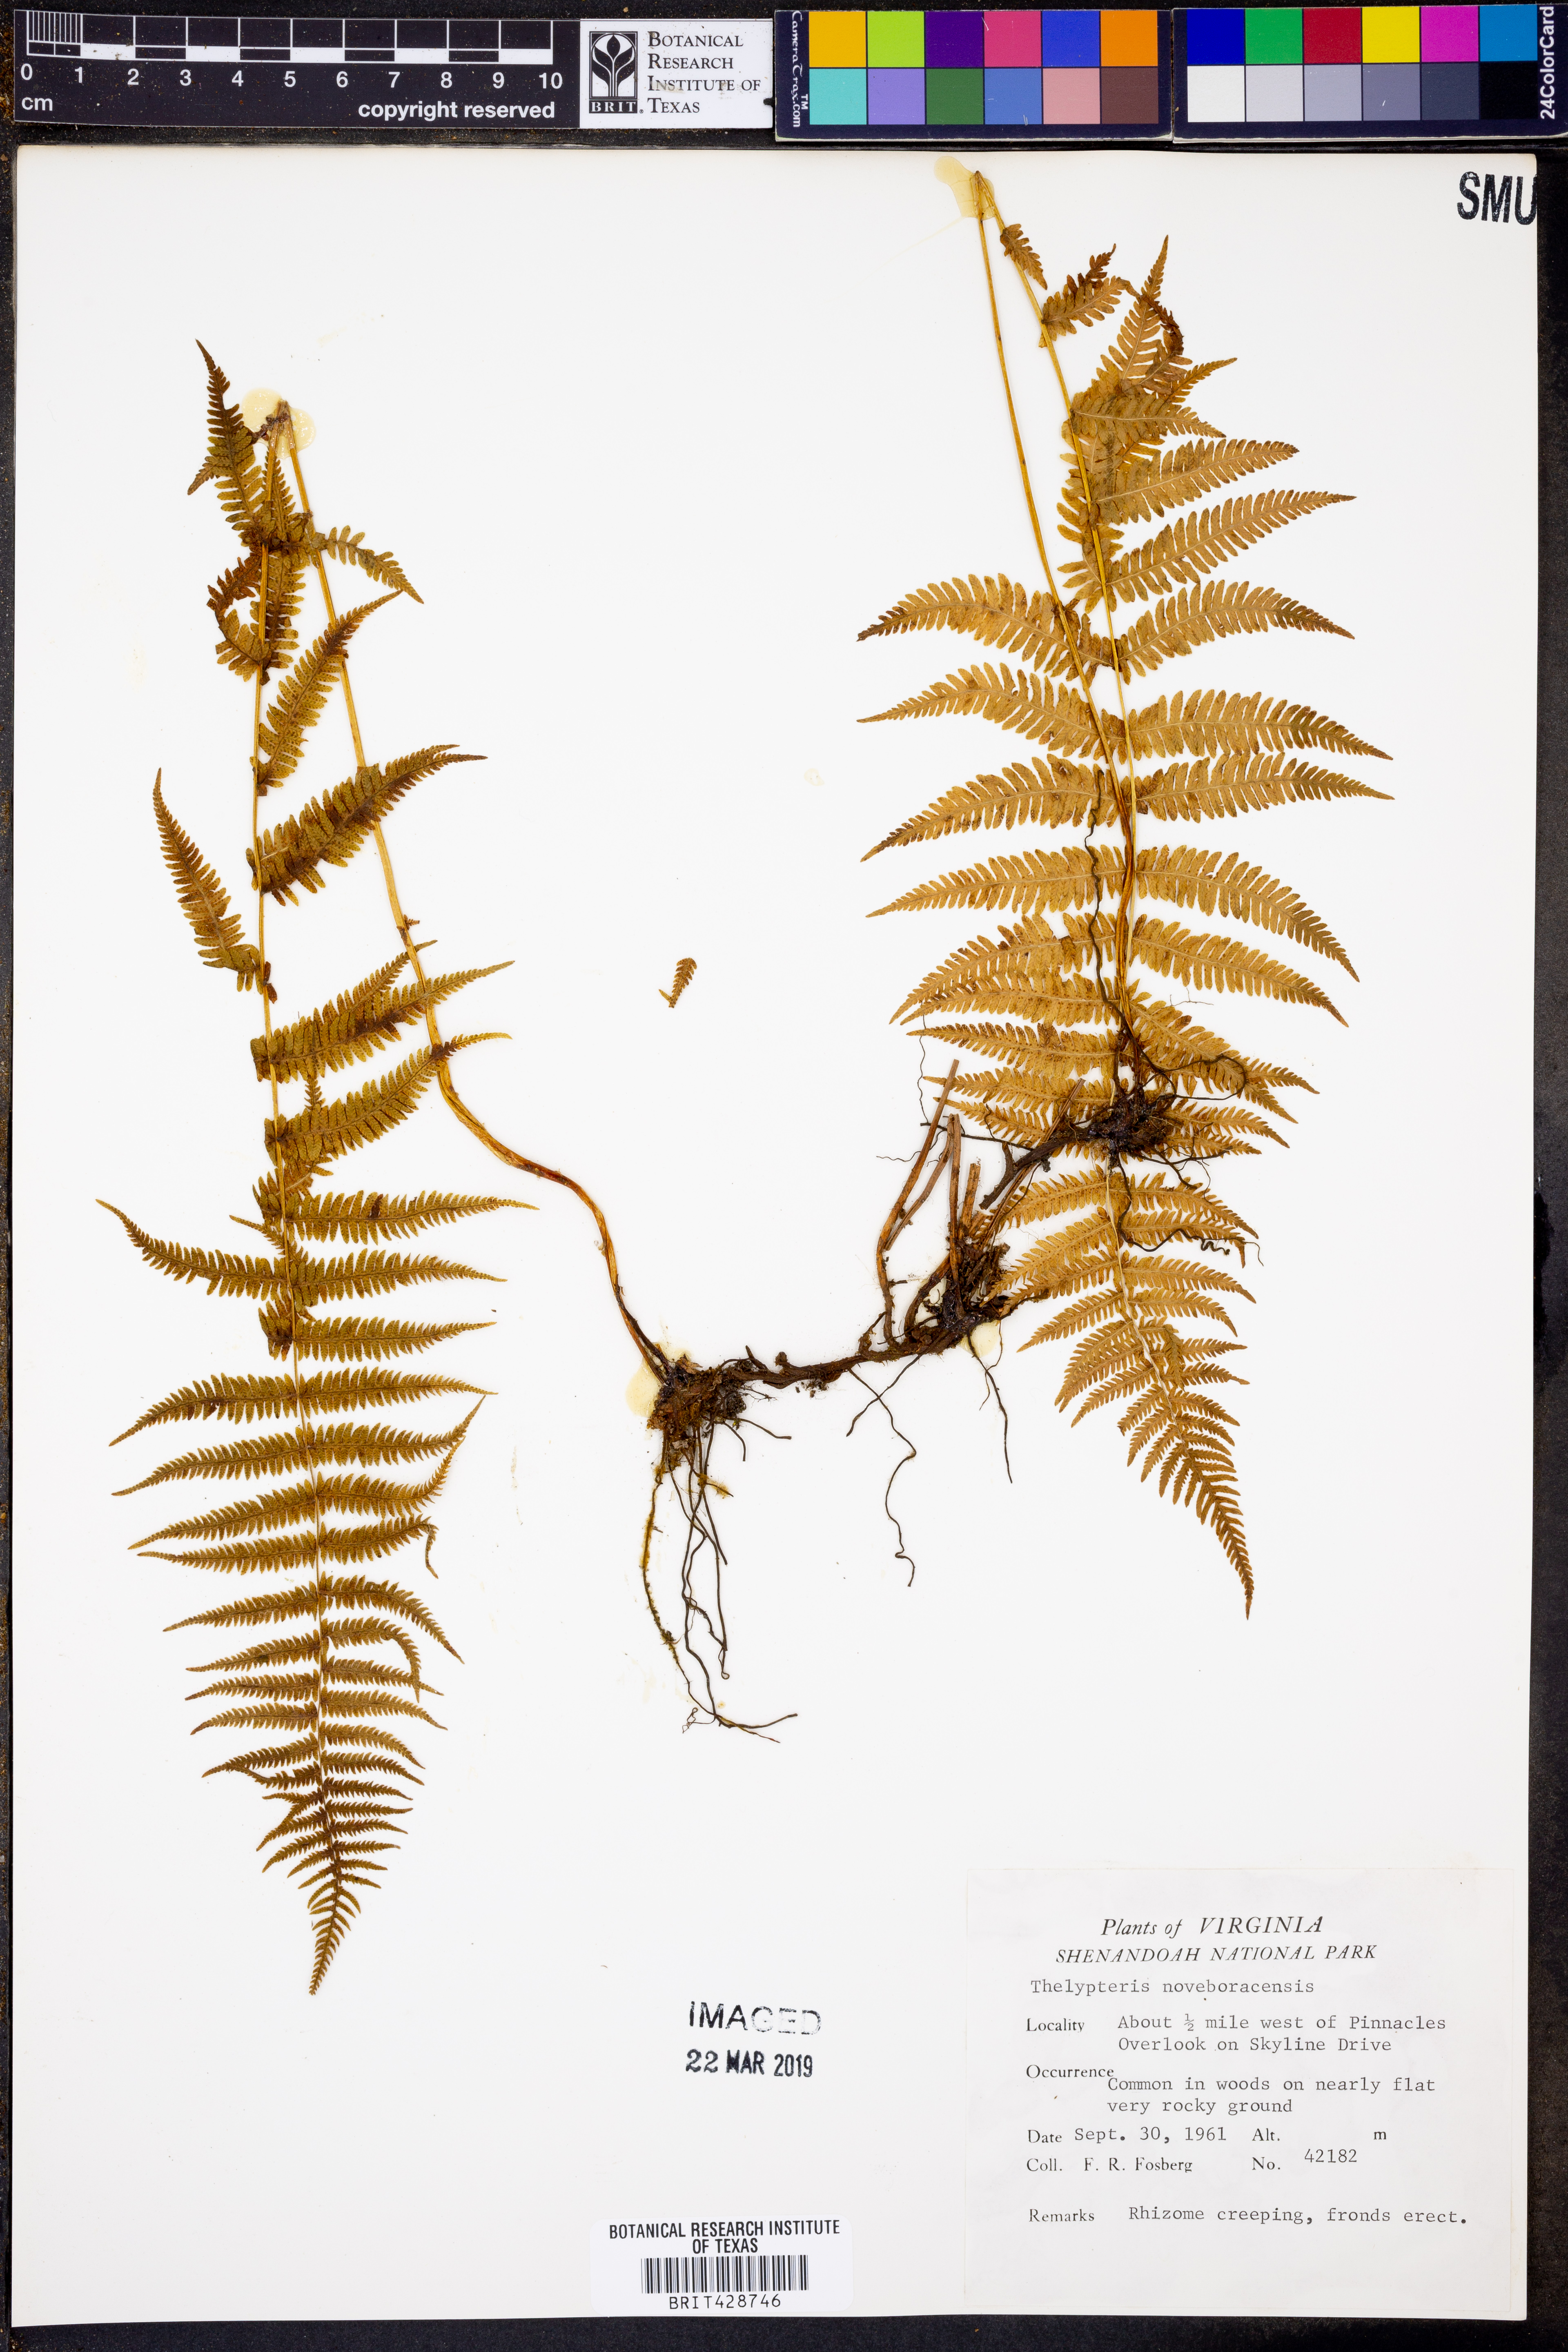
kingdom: Plantae
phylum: Tracheophyta
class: Polypodiopsida
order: Polypodiales
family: Thelypteridaceae
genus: Amauropelta
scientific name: Amauropelta noveboracensis
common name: New york fern
